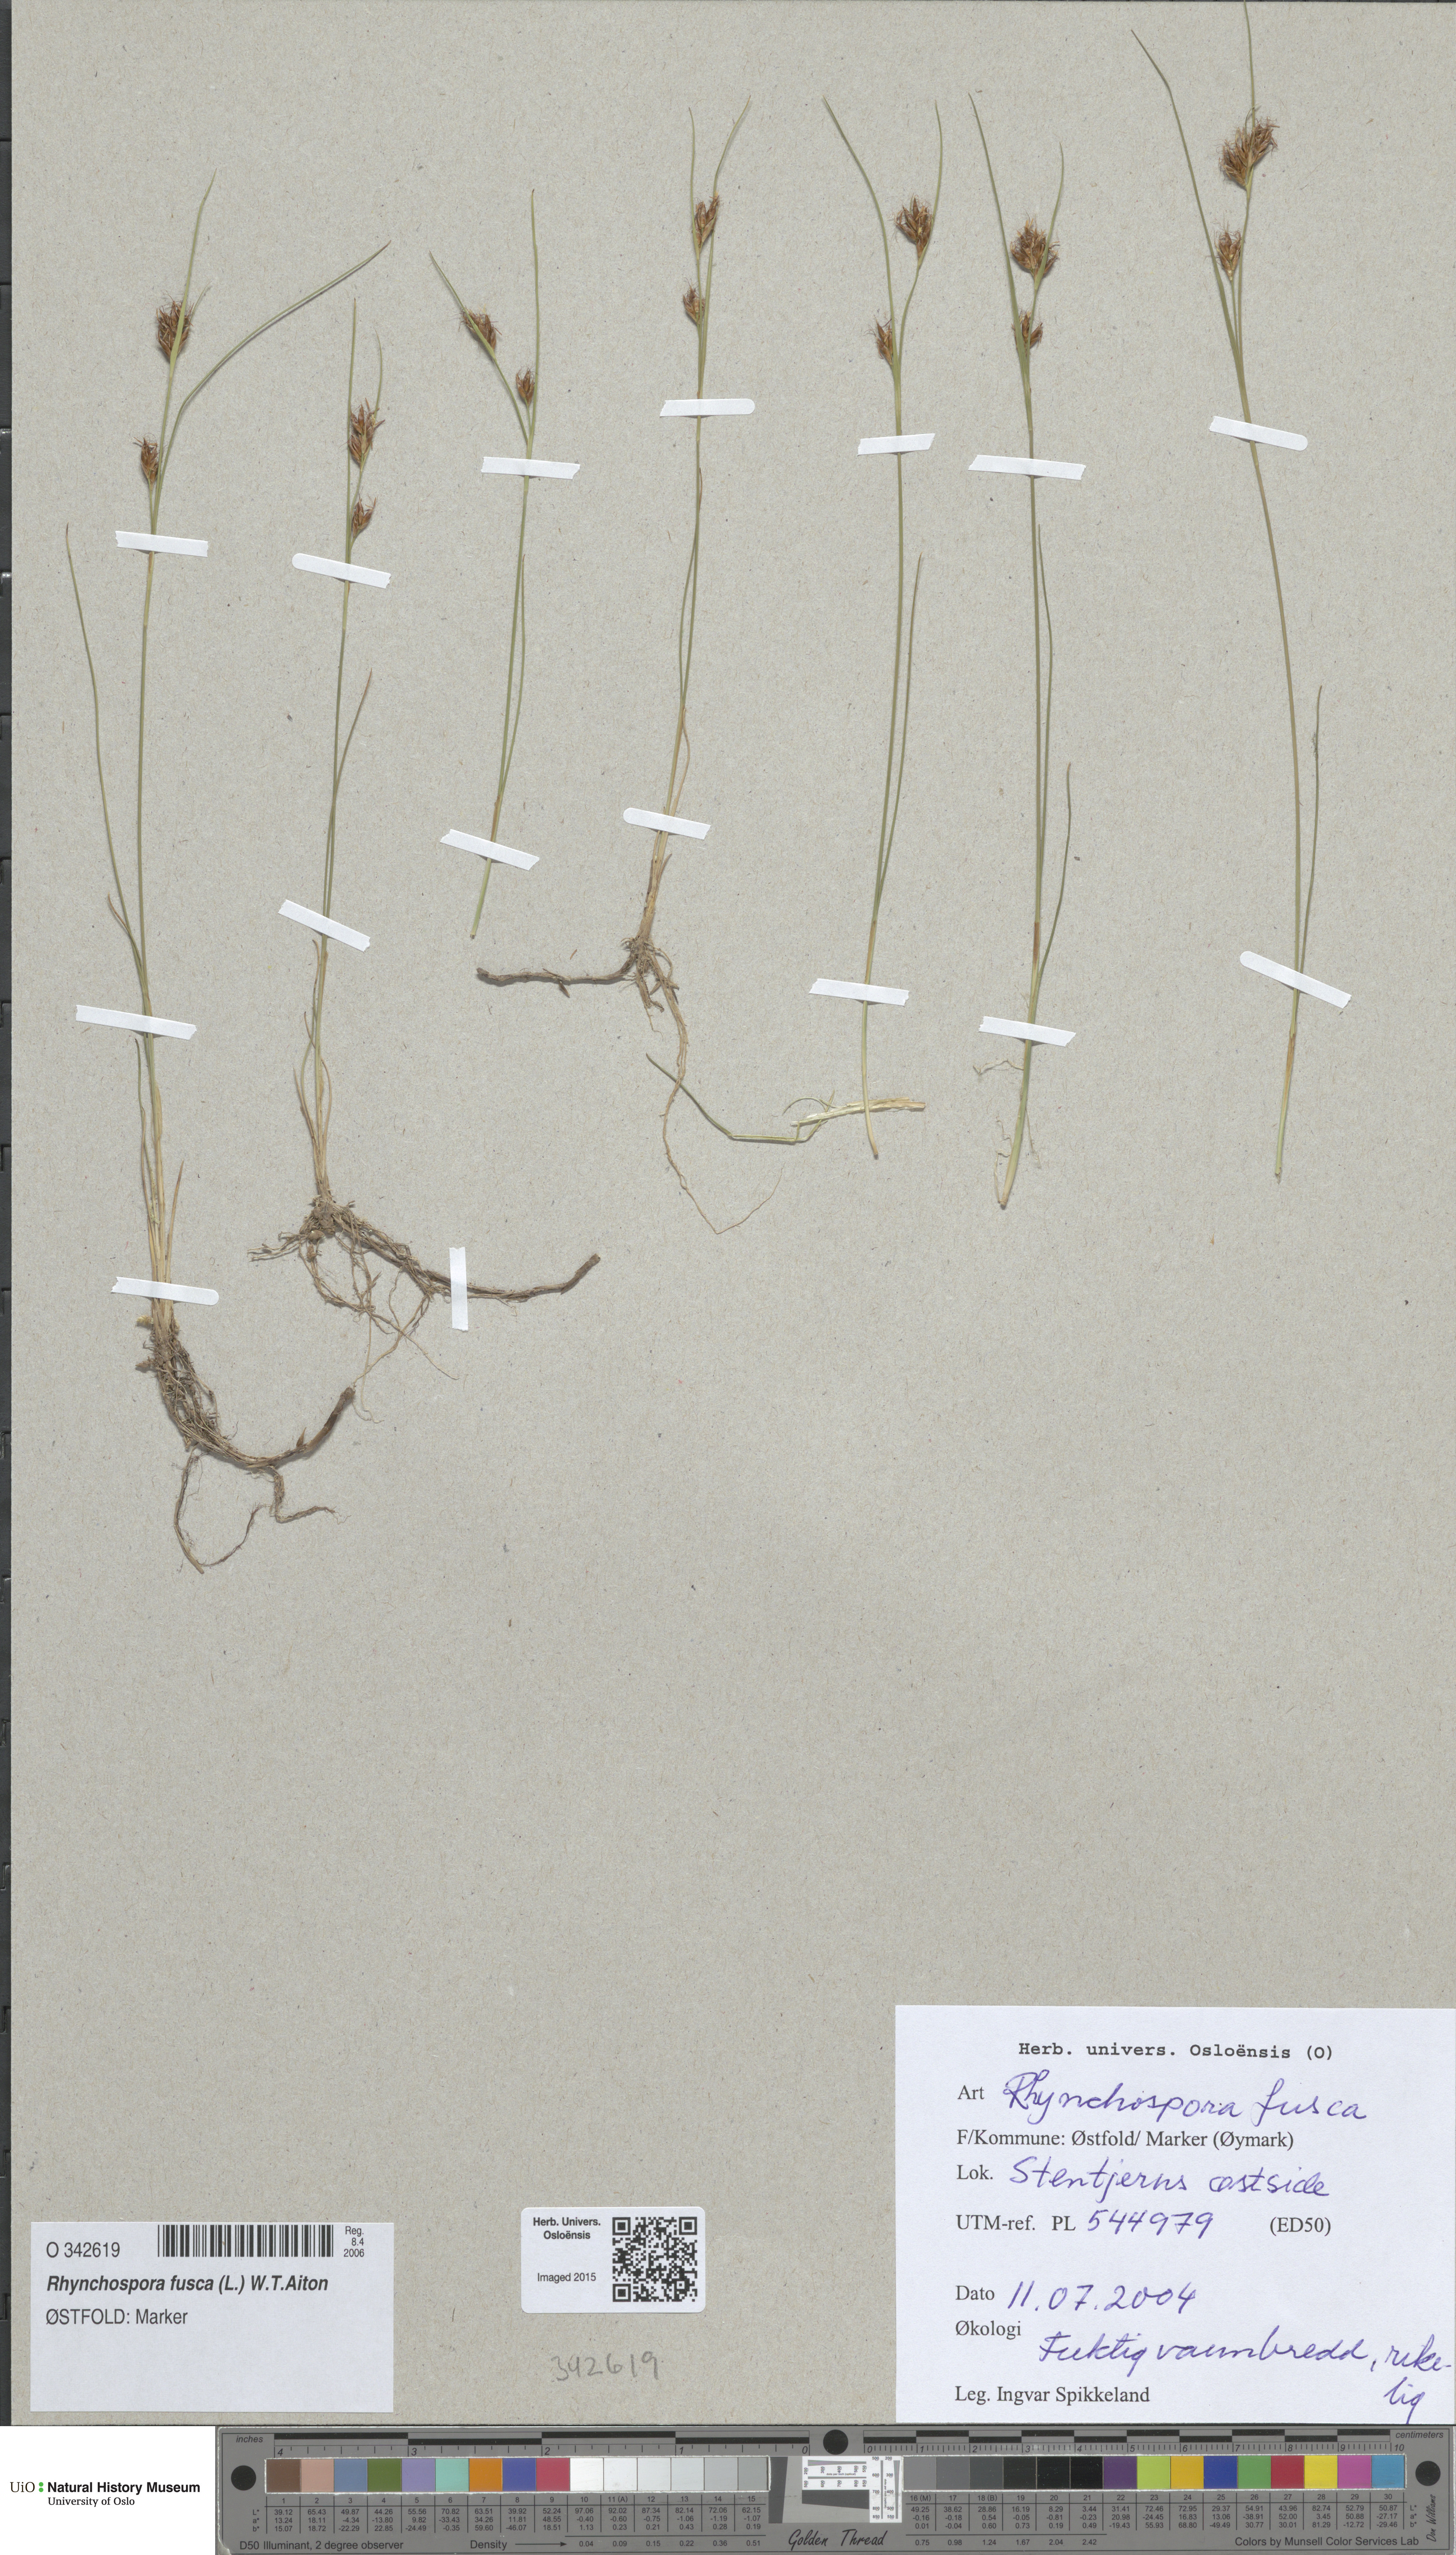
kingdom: Plantae
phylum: Tracheophyta
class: Liliopsida
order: Poales
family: Cyperaceae
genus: Rhynchospora
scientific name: Rhynchospora fusca
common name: Brown beak-sedge
